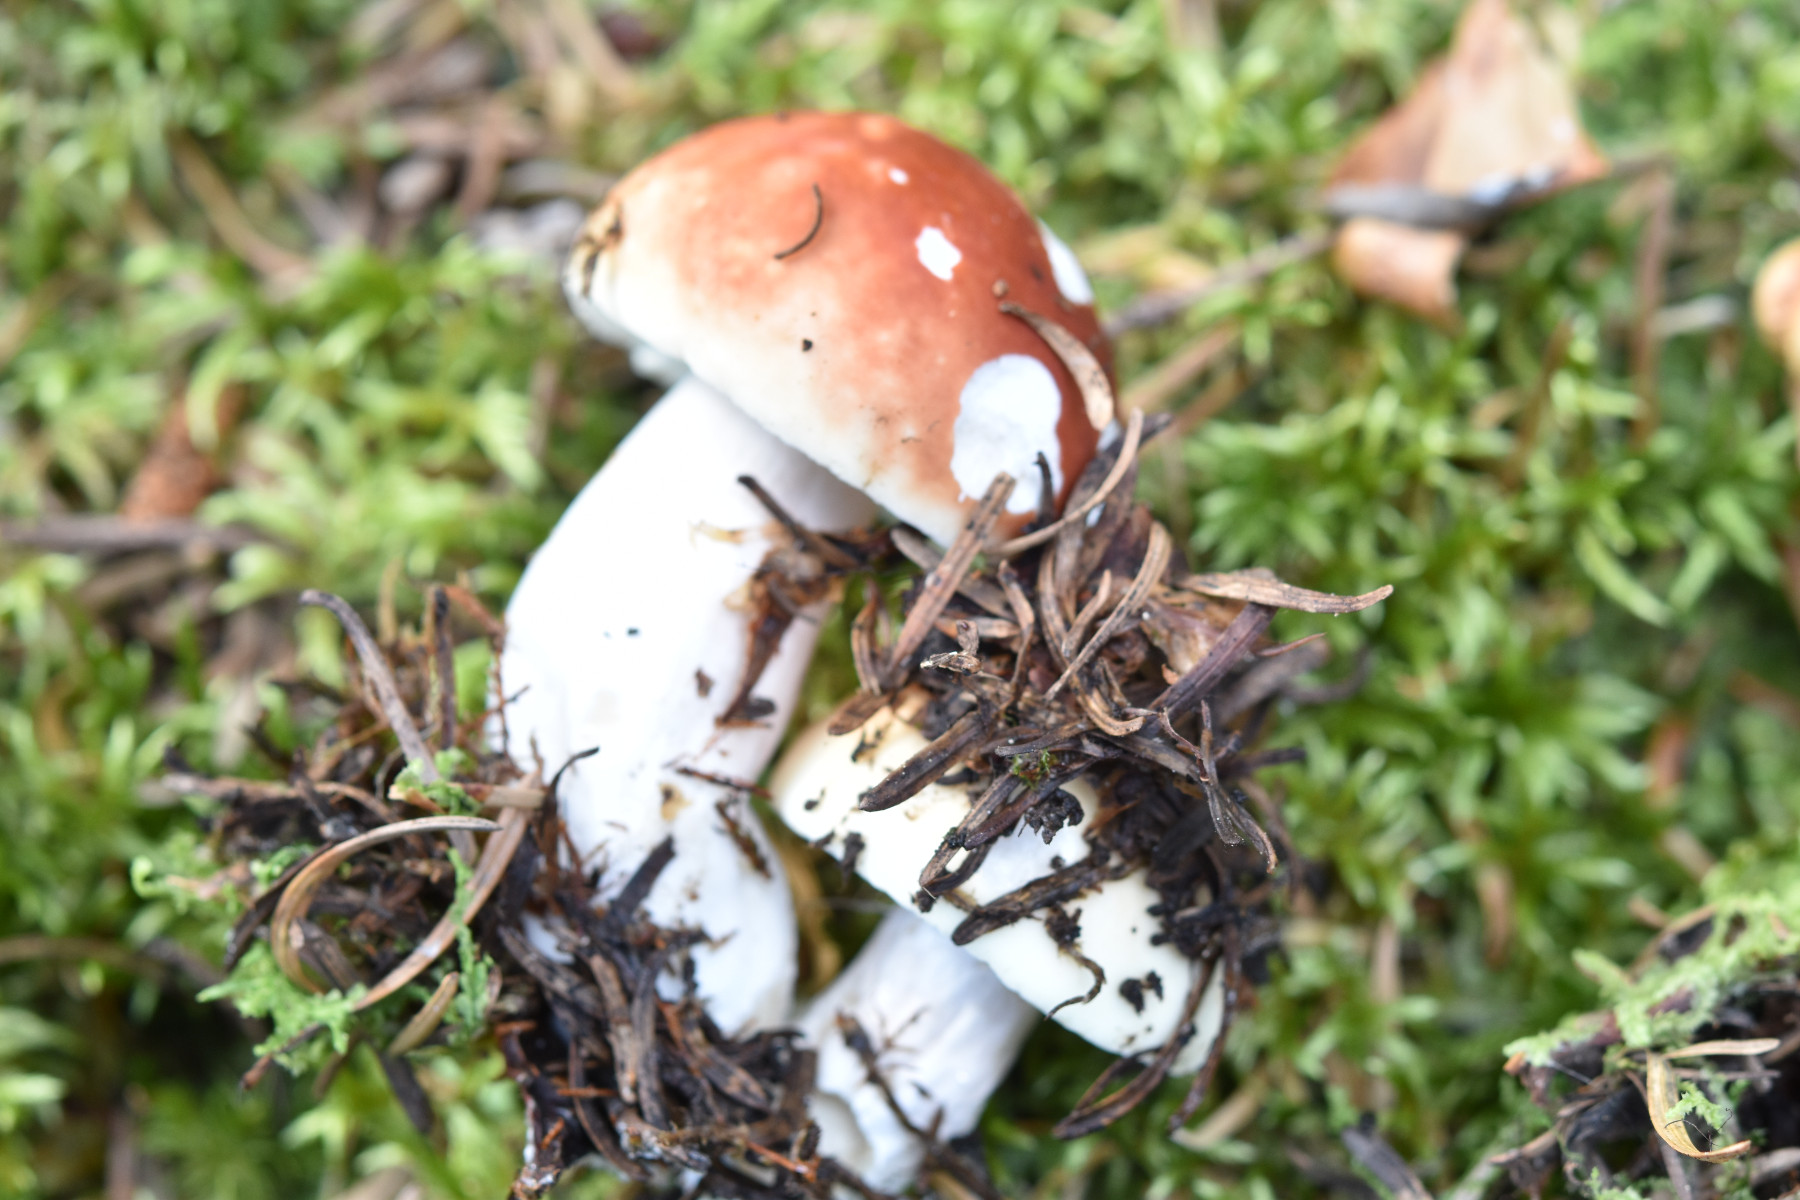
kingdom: Fungi
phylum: Basidiomycota
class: Agaricomycetes
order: Russulales
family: Russulaceae
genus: Russula
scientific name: Russula paludosa
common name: prægtig skørhat
